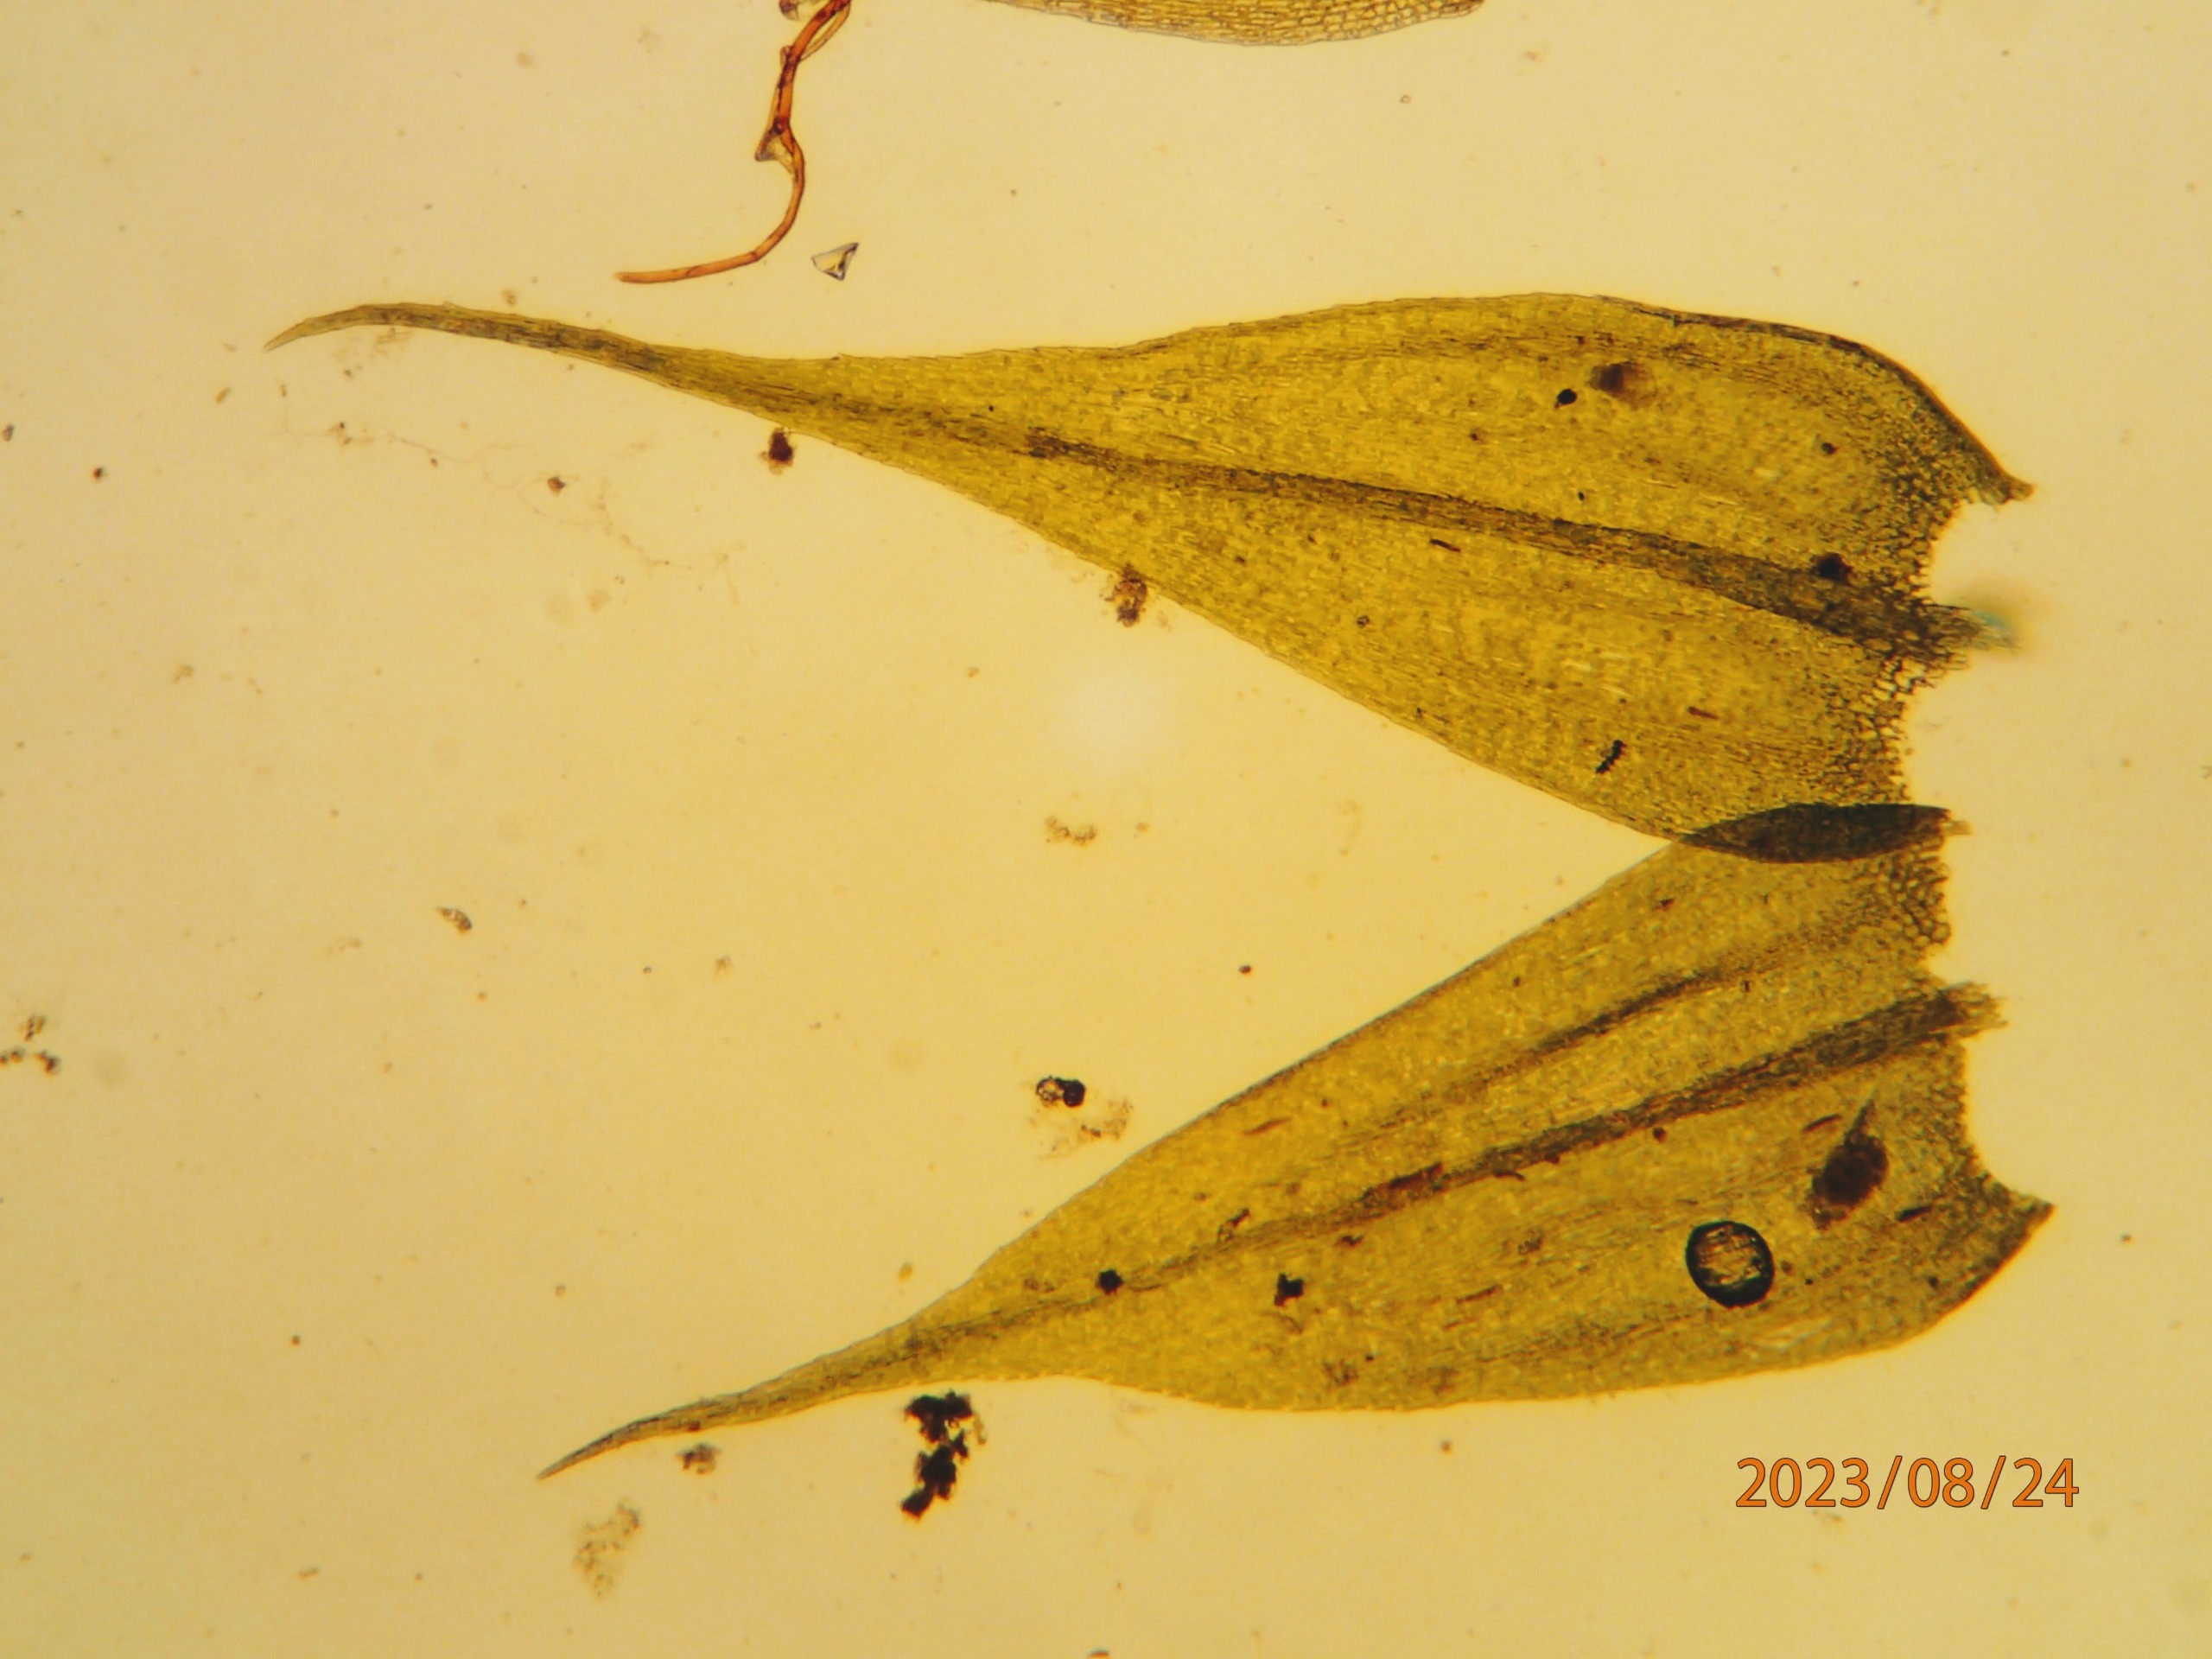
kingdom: Plantae
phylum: Bryophyta
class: Bryopsida
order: Hypnales
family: Brachytheciaceae
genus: Sciuro-hypnum
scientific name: Sciuro-hypnum populeum
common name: Park-kortkapsel
